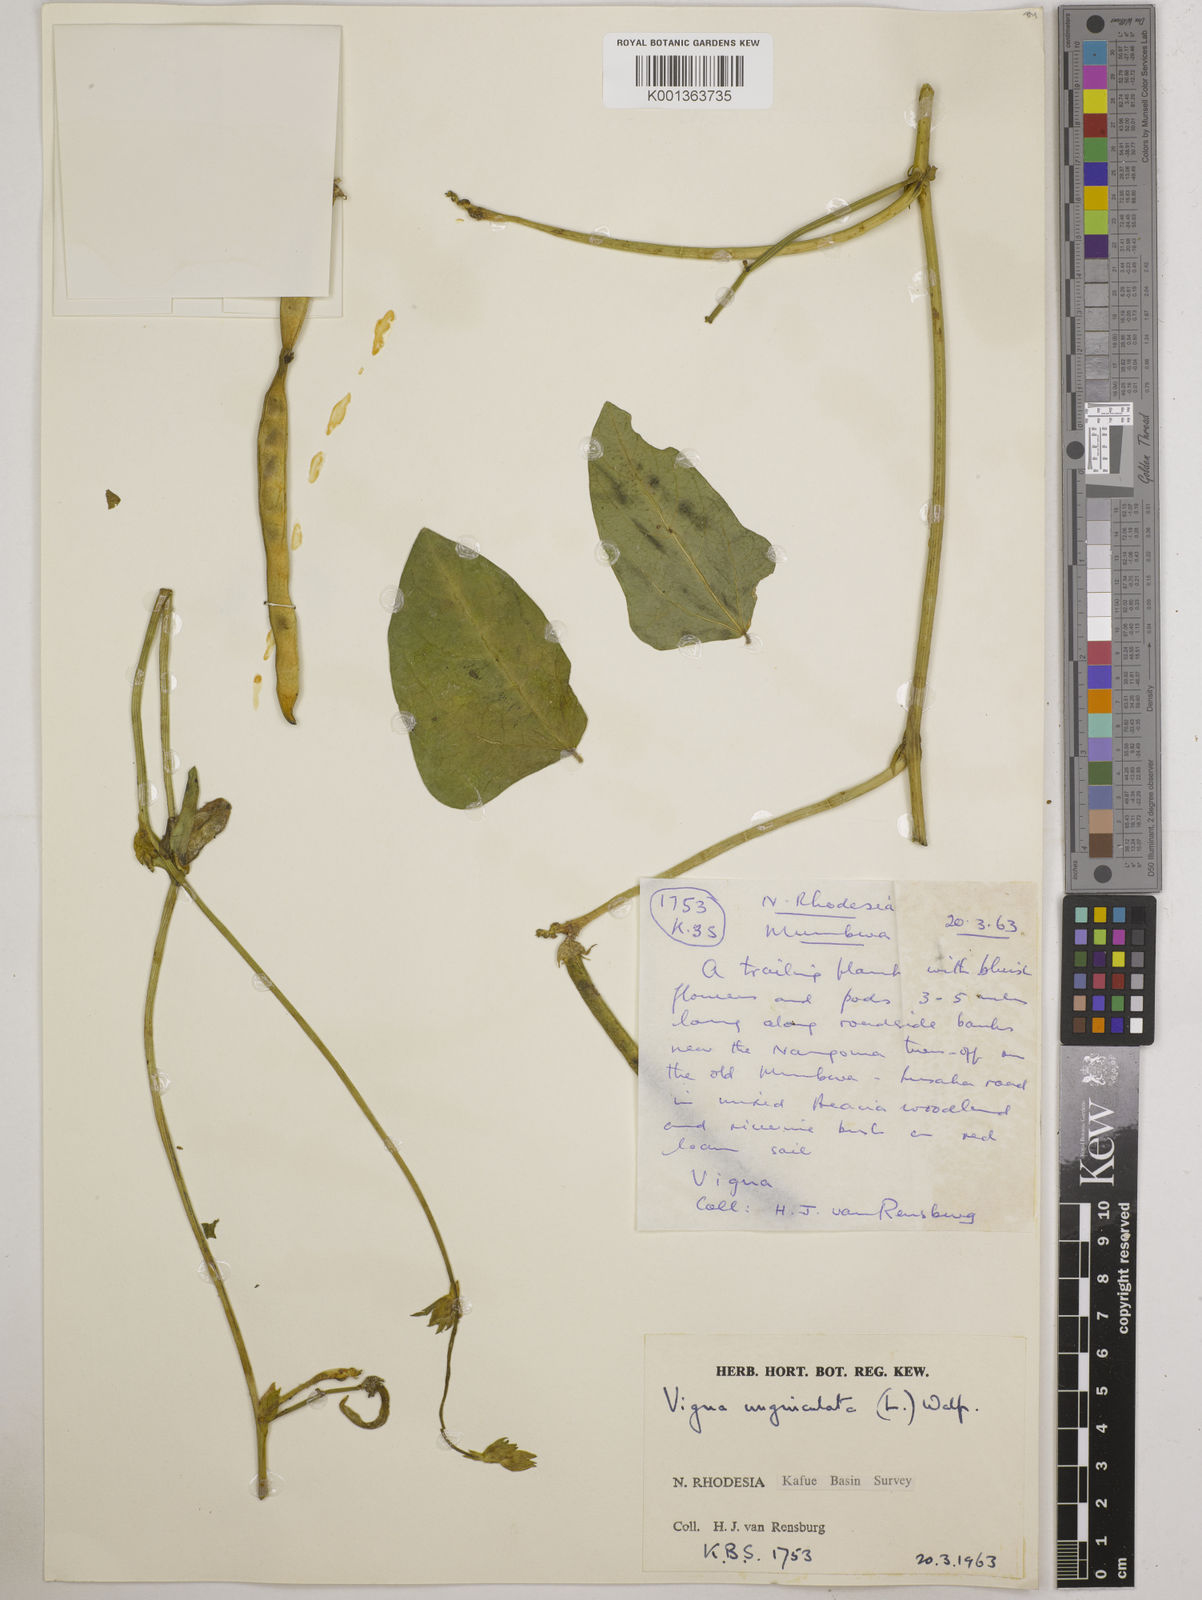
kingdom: Plantae
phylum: Tracheophyta
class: Magnoliopsida
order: Fabales
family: Fabaceae
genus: Vigna
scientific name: Vigna unguiculata
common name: Cowpea
